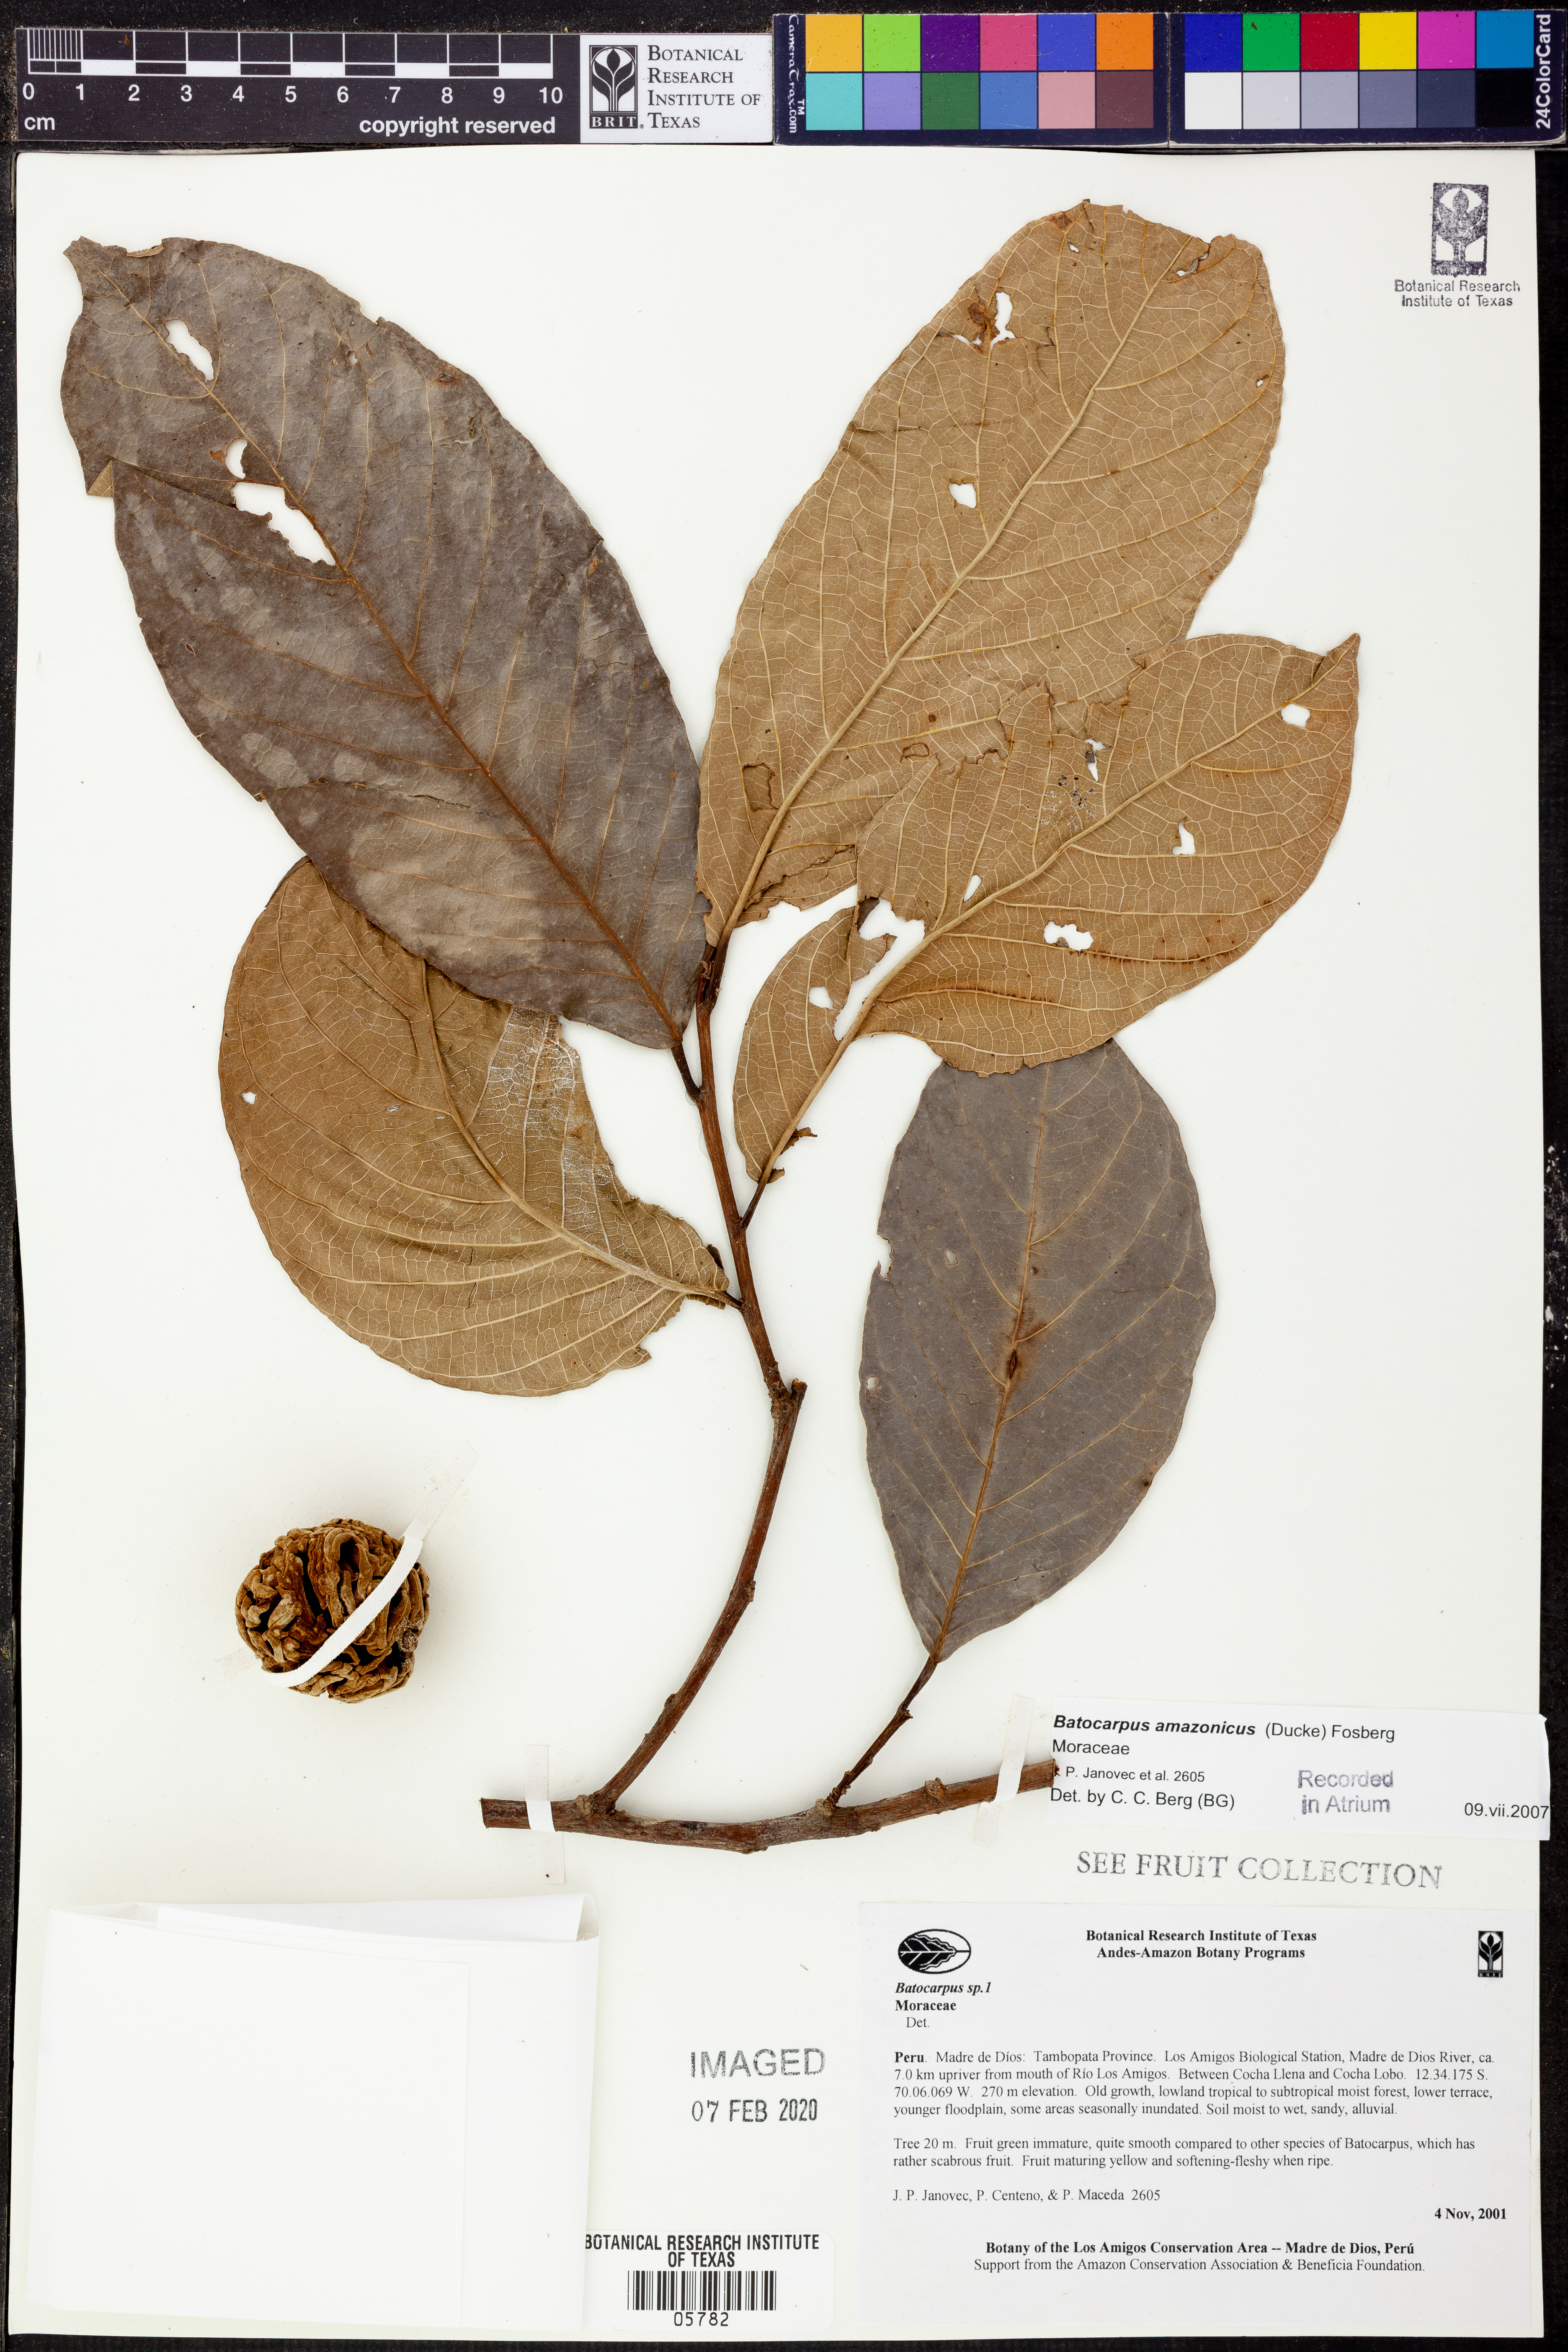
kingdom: Plantae
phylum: Tracheophyta
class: Magnoliopsida
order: Rosales
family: Moraceae
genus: Batocarpus
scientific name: Batocarpus
